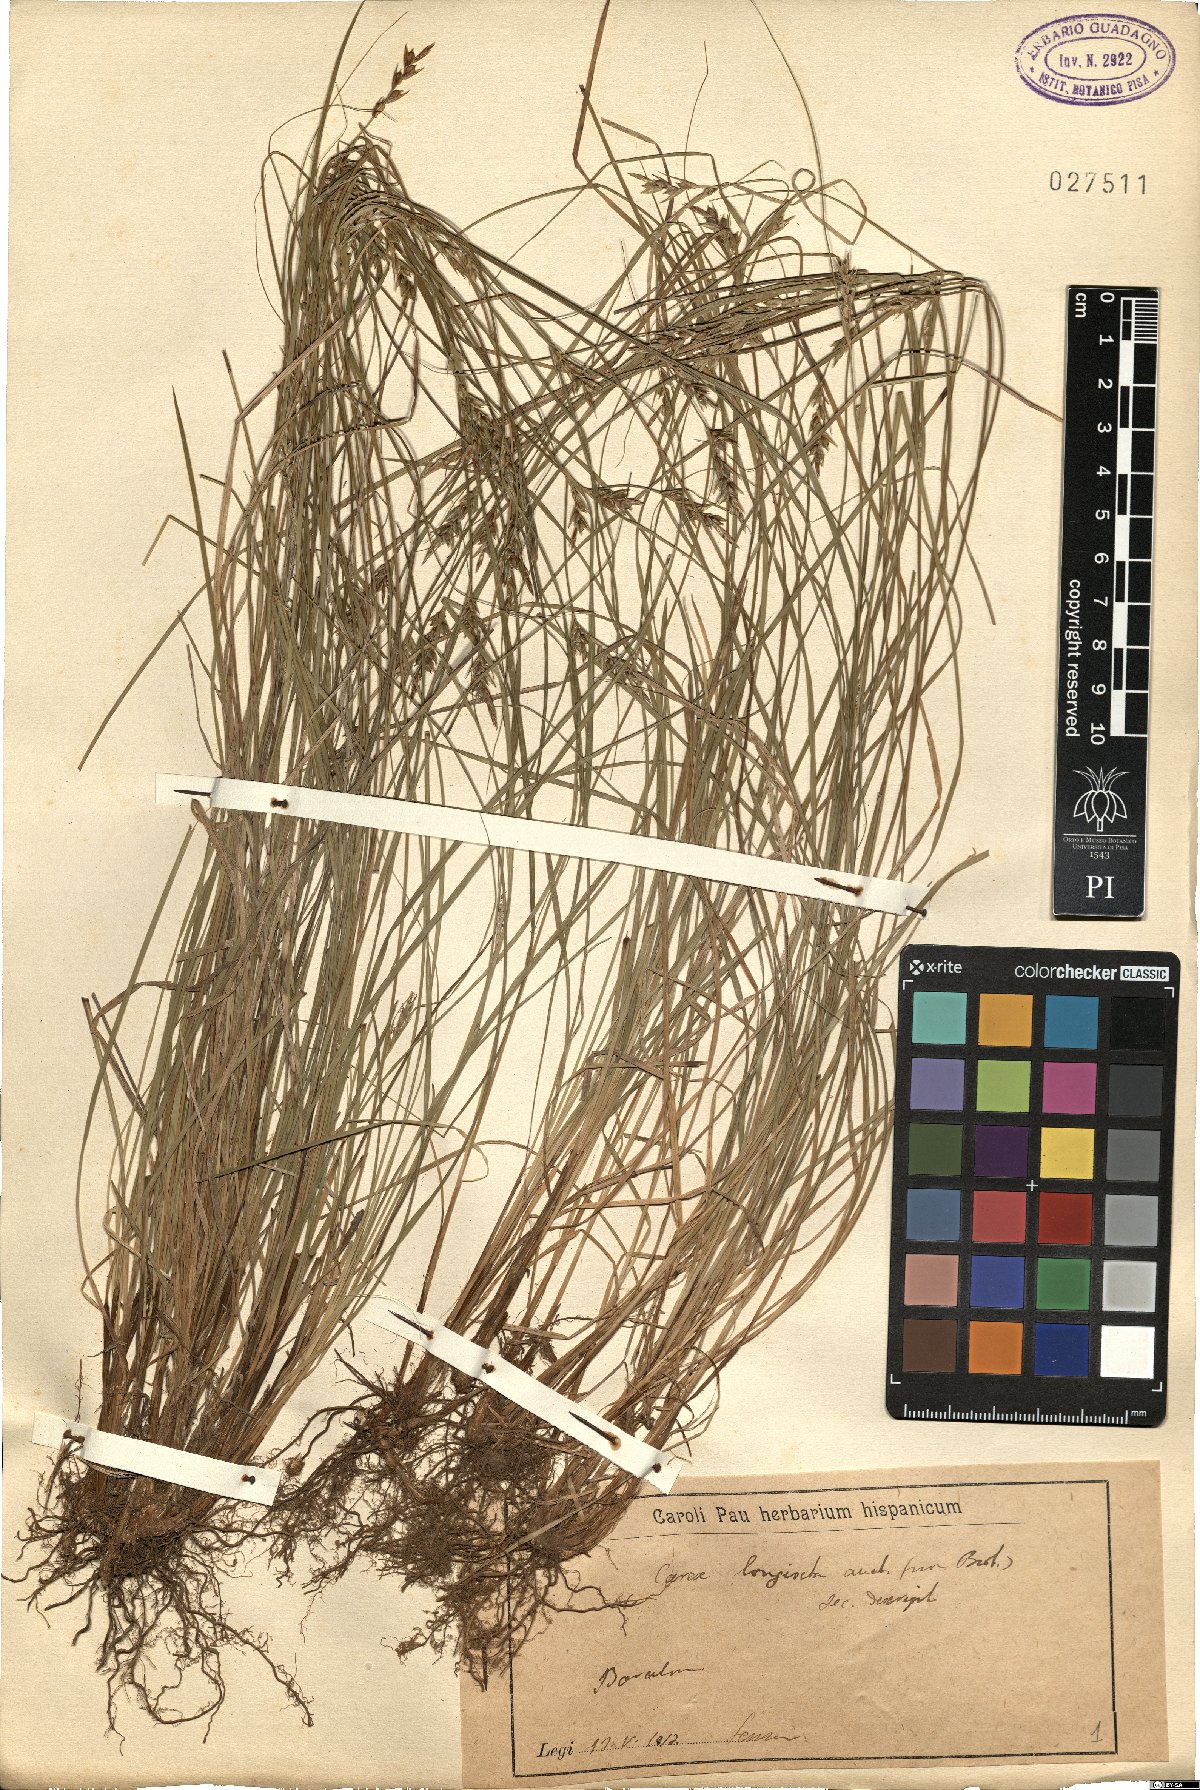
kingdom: Plantae
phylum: Tracheophyta
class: Liliopsida
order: Poales
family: Cyperaceae
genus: Carex
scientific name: Carex distachya
